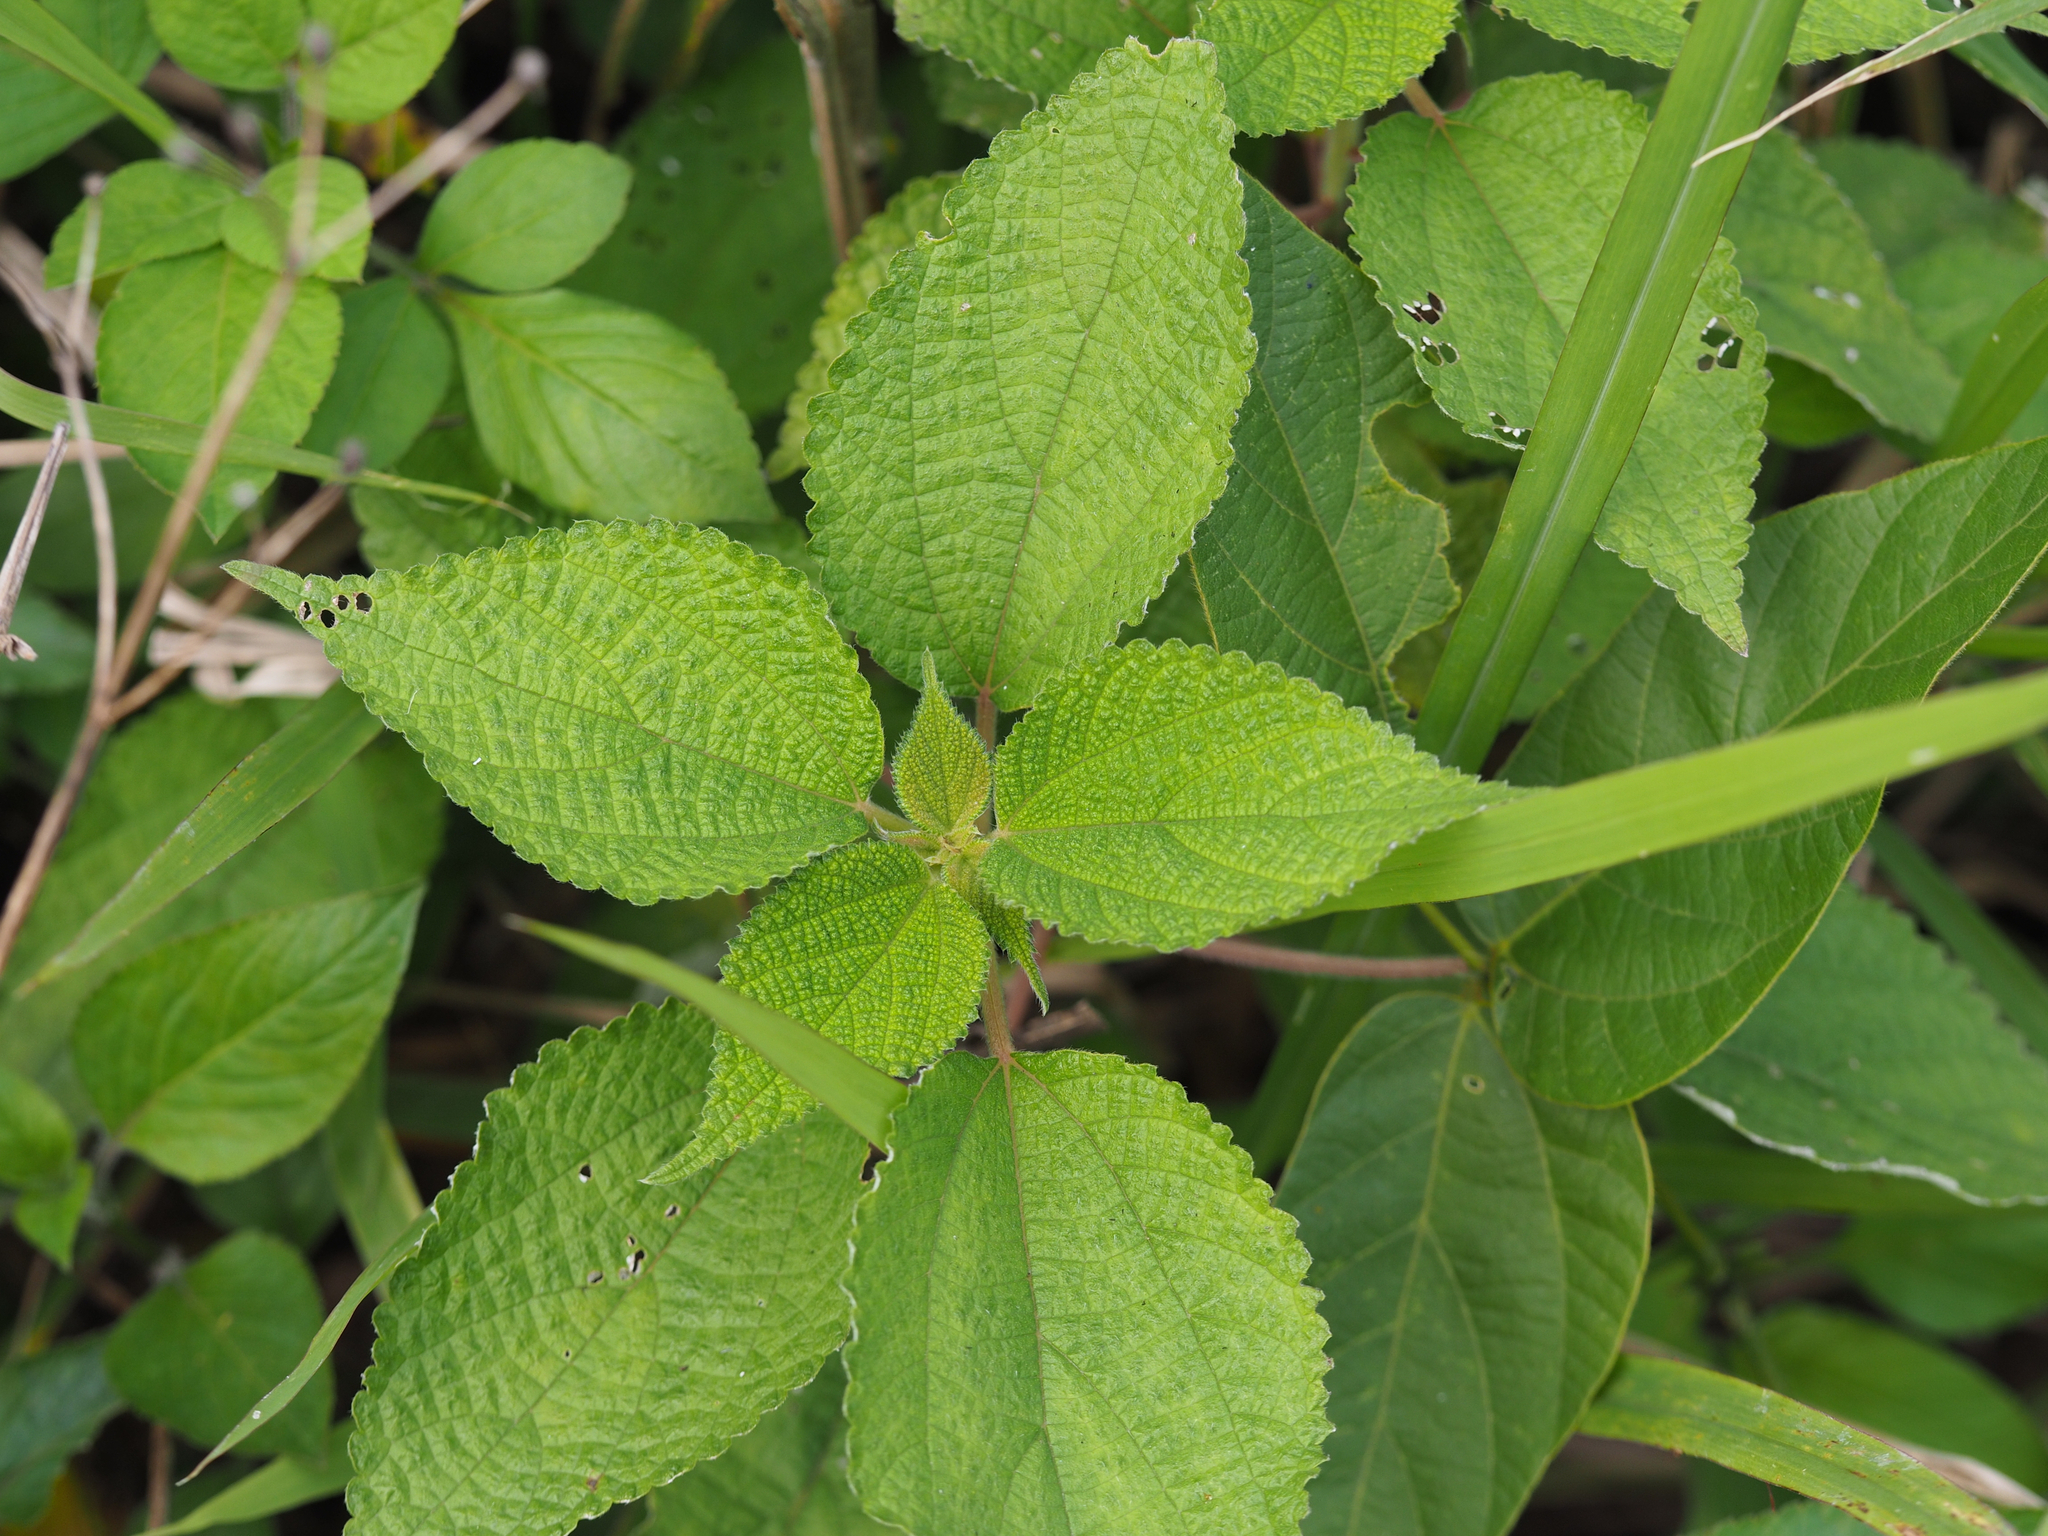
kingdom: Plantae
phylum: Tracheophyta
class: Magnoliopsida
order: Rosales
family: Urticaceae
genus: Boehmeria
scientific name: Boehmeria nivea
